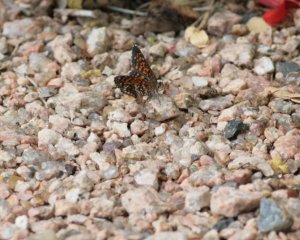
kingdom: Animalia
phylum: Arthropoda
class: Insecta
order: Lepidoptera
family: Nymphalidae
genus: Texola
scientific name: Texola elada
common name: Elada Checkerspot
